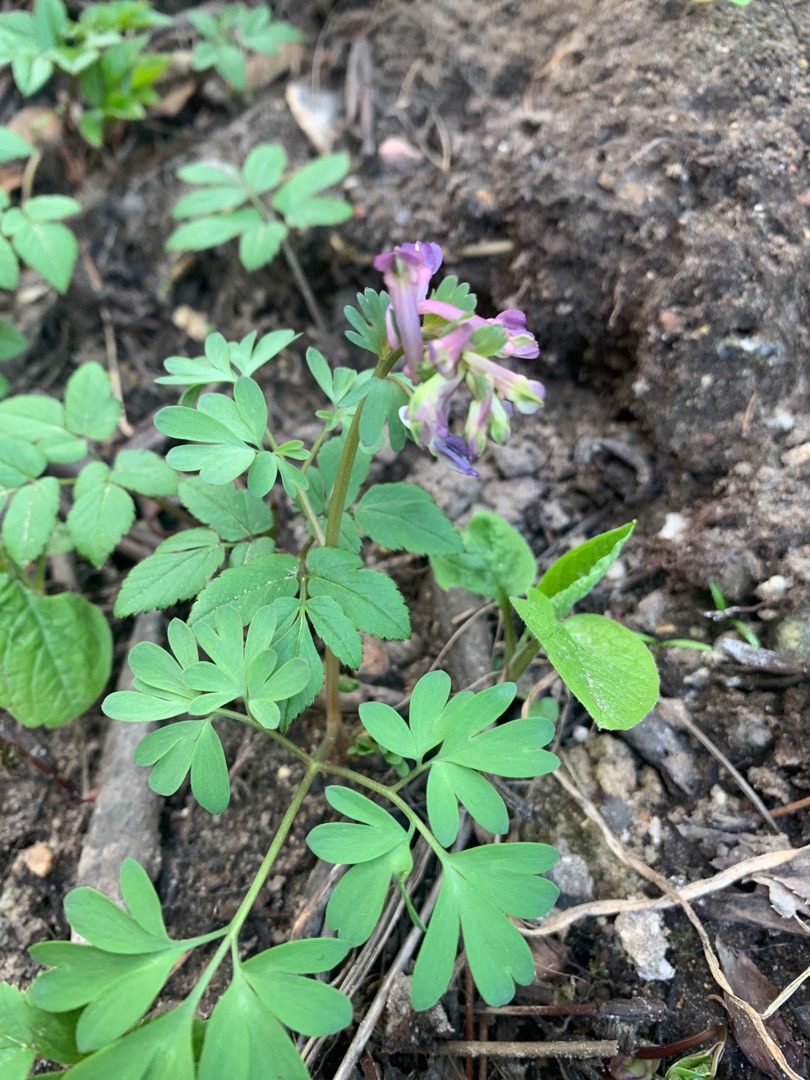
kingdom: Plantae
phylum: Tracheophyta
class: Magnoliopsida
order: Ranunculales
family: Papaveraceae
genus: Corydalis
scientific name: Corydalis solida
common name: Langstilket lærkespore
